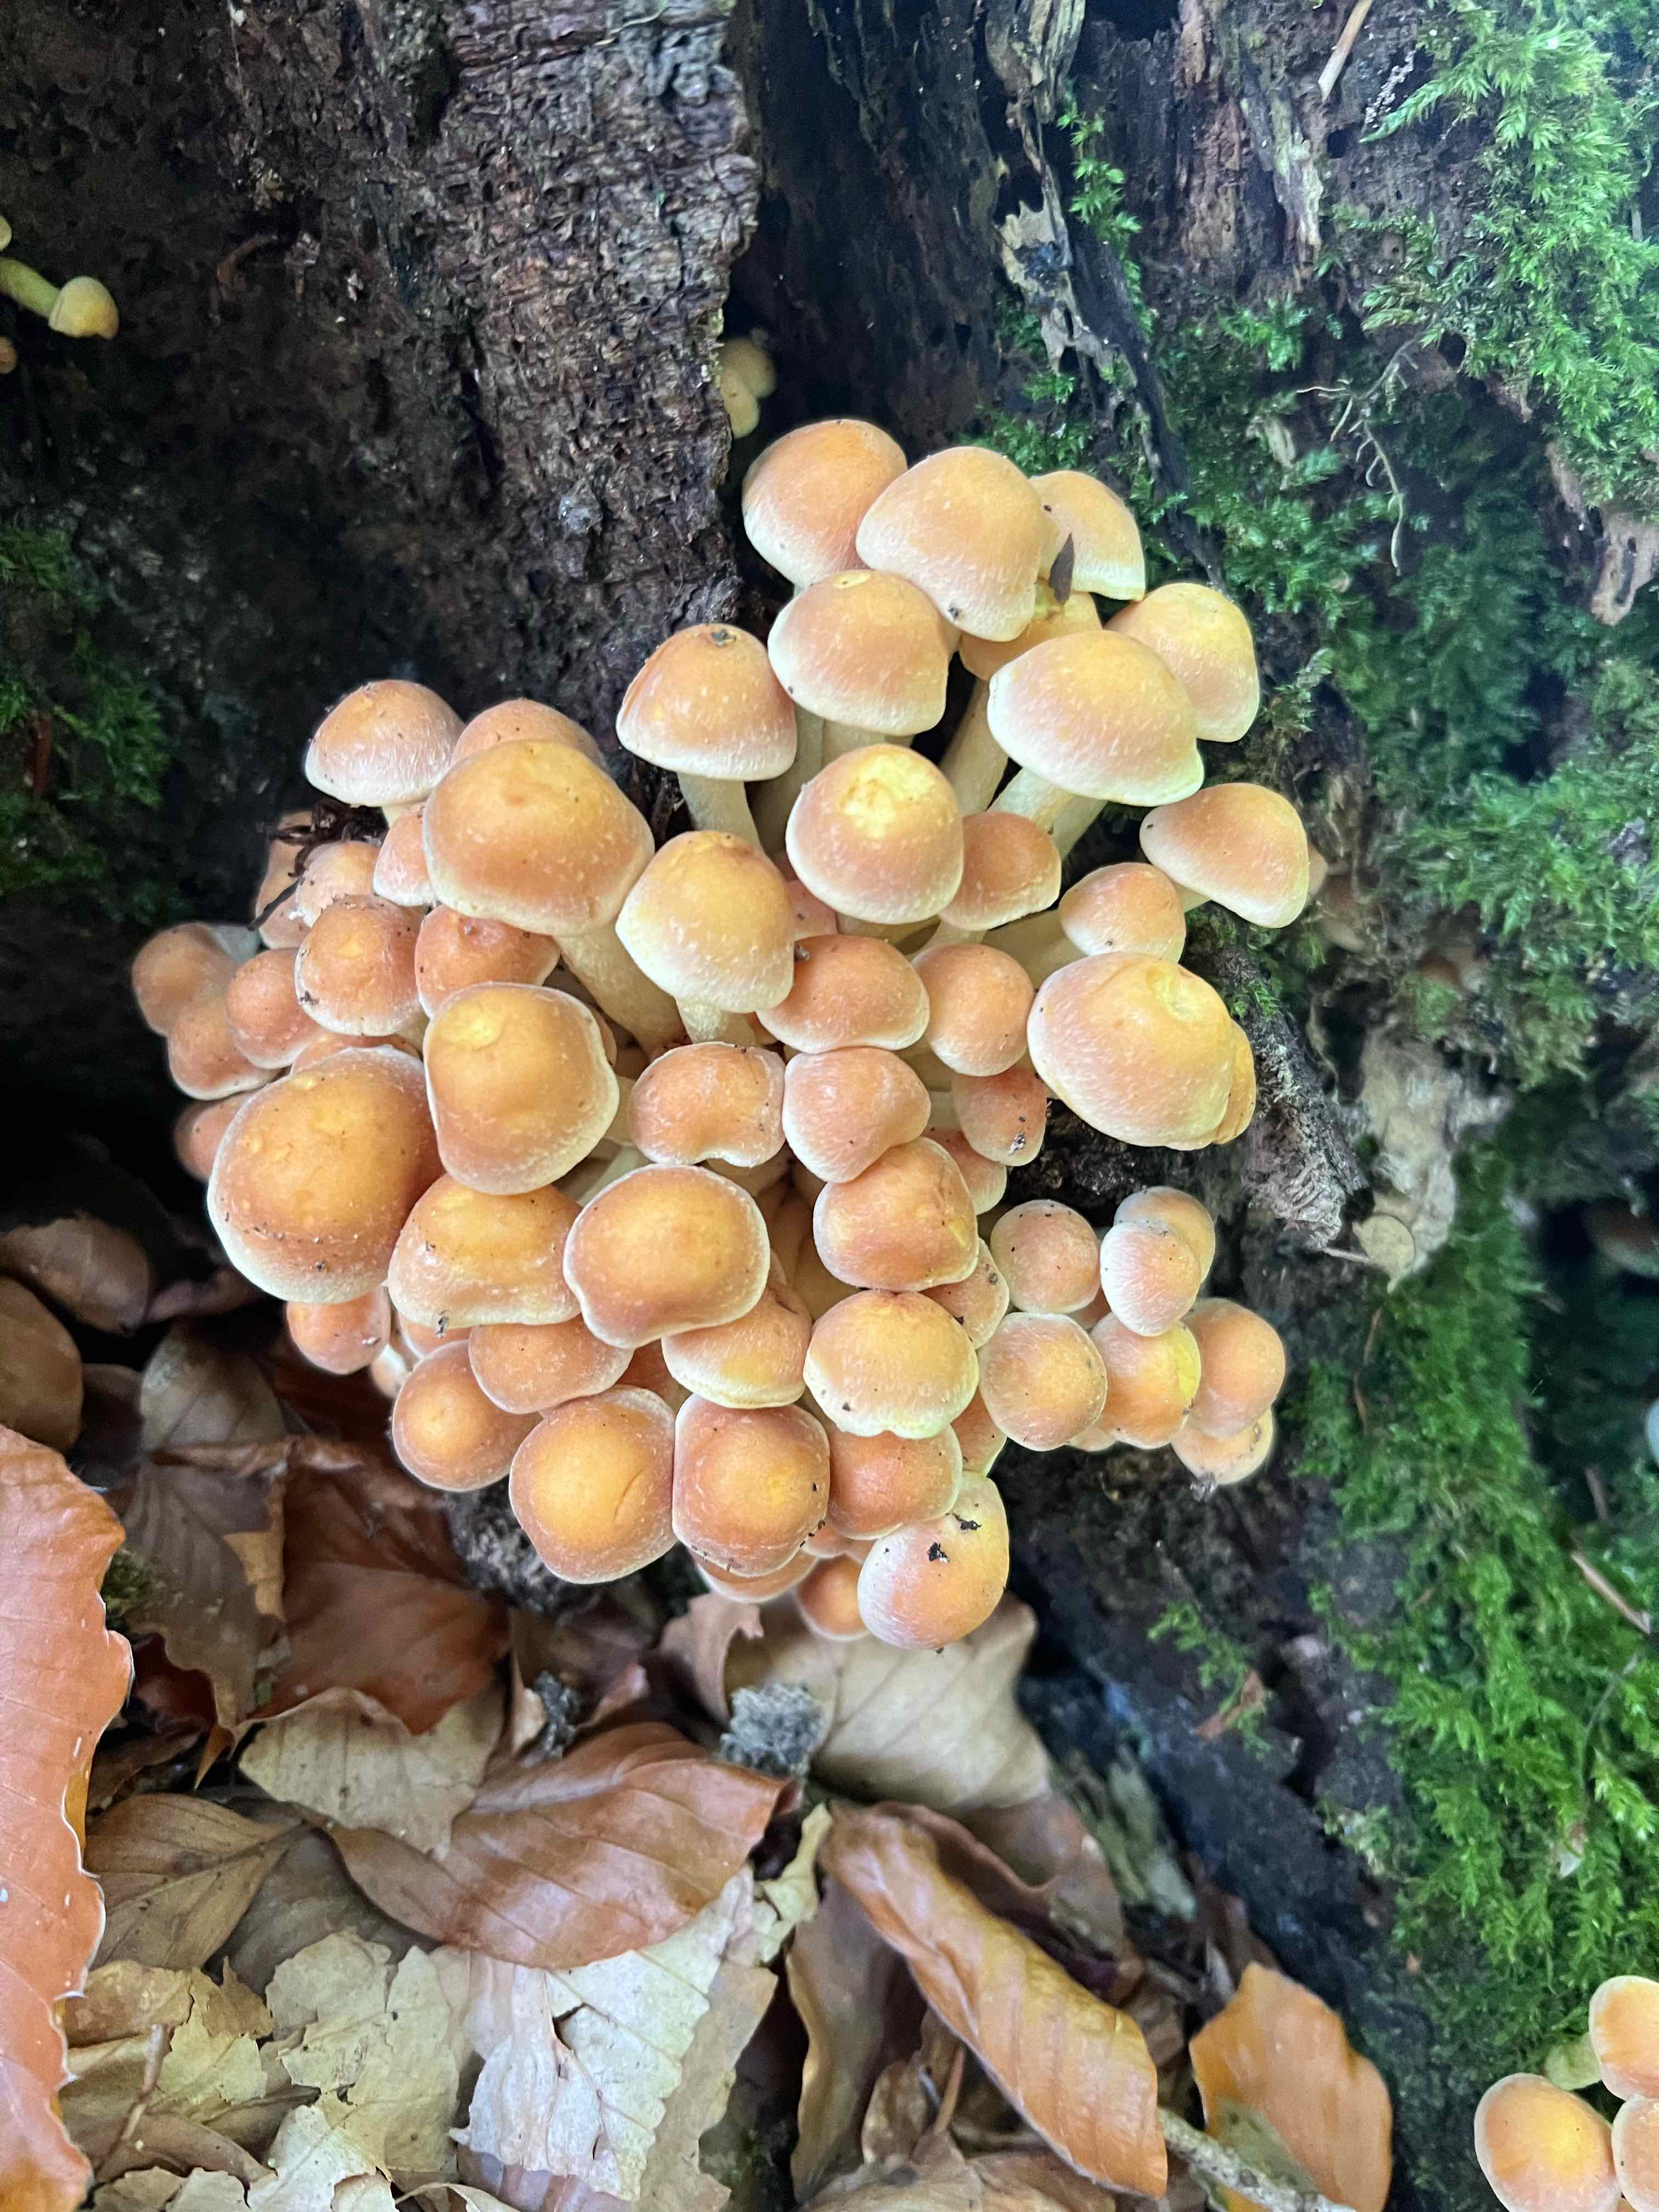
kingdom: Fungi
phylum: Basidiomycota
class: Agaricomycetes
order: Agaricales
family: Strophariaceae
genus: Hypholoma
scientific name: Hypholoma fasciculare
